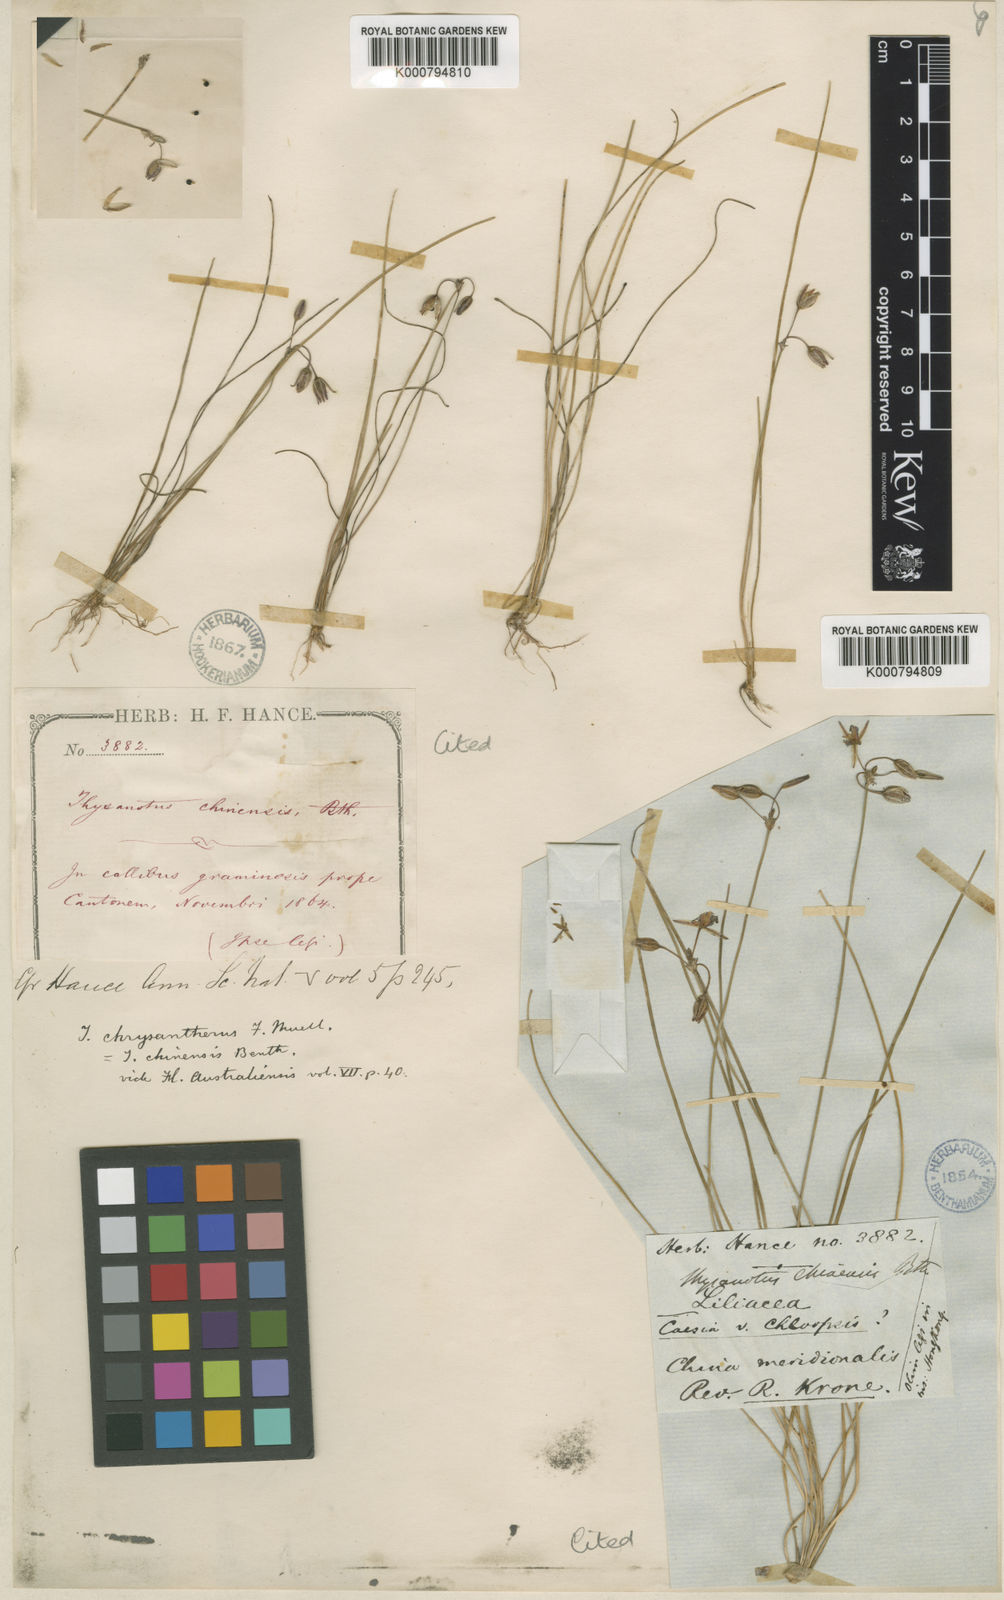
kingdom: Plantae
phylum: Tracheophyta
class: Liliopsida
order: Asparagales
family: Asparagaceae
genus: Thysanotus
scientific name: Thysanotus chinensis
